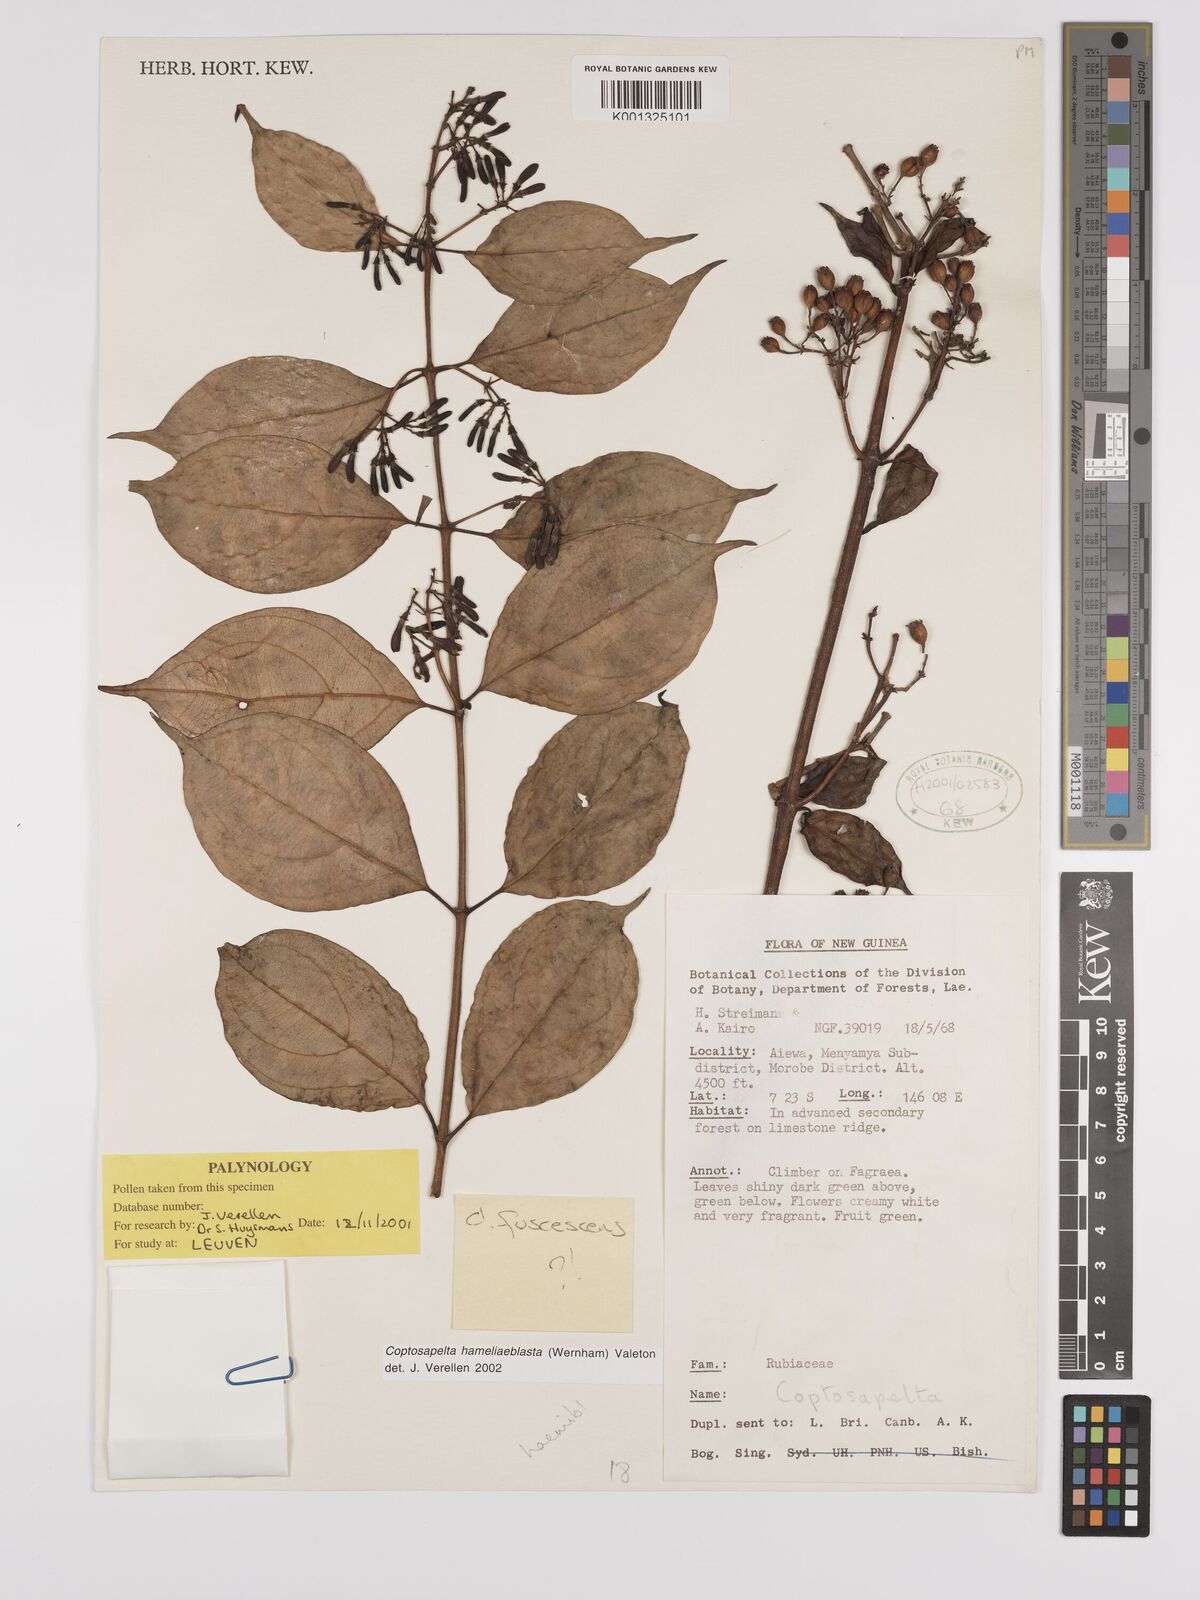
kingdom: Plantae
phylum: Tracheophyta
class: Magnoliopsida
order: Gentianales
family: Rubiaceae
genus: Coptosapelta
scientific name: Coptosapelta
